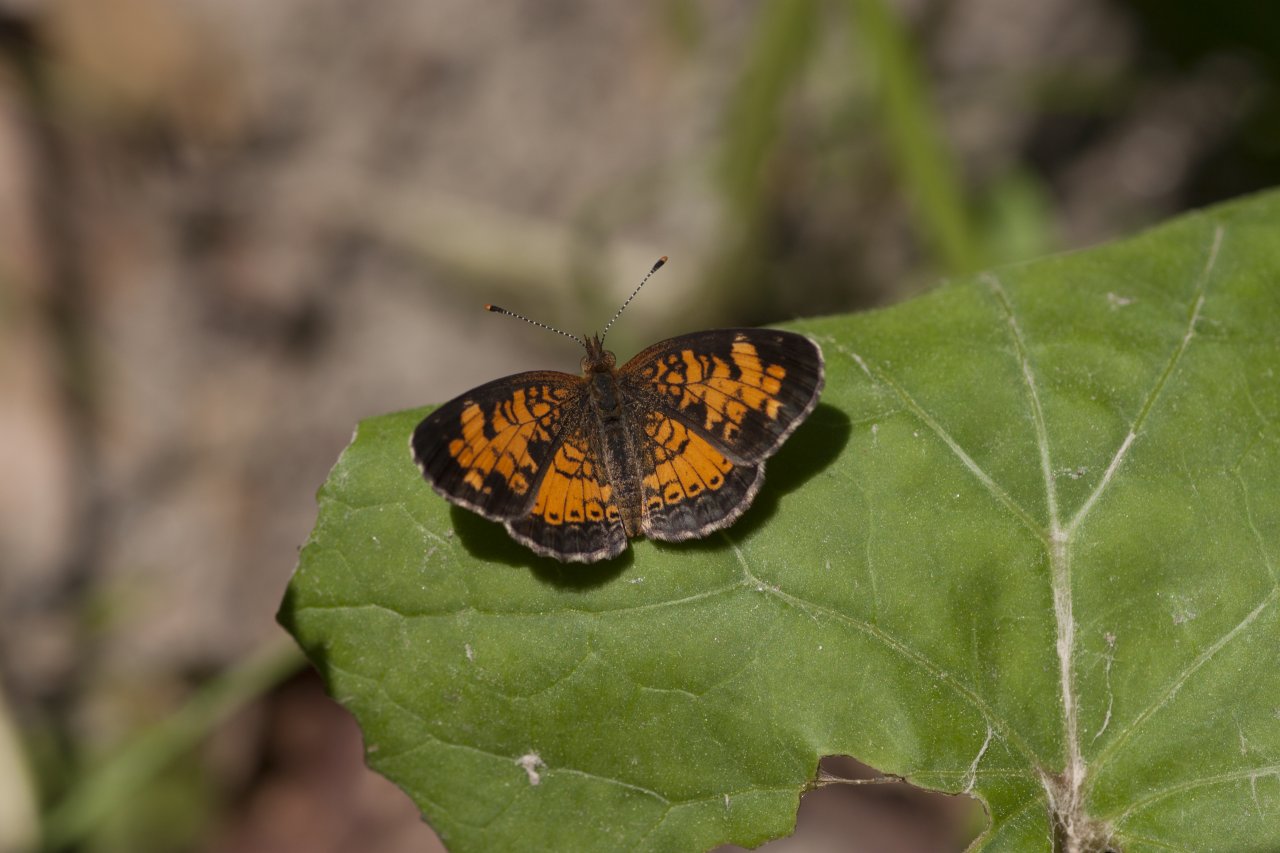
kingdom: Animalia
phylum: Arthropoda
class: Insecta
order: Lepidoptera
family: Nymphalidae
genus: Phyciodes
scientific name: Phyciodes tharos
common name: Northern Crescent
